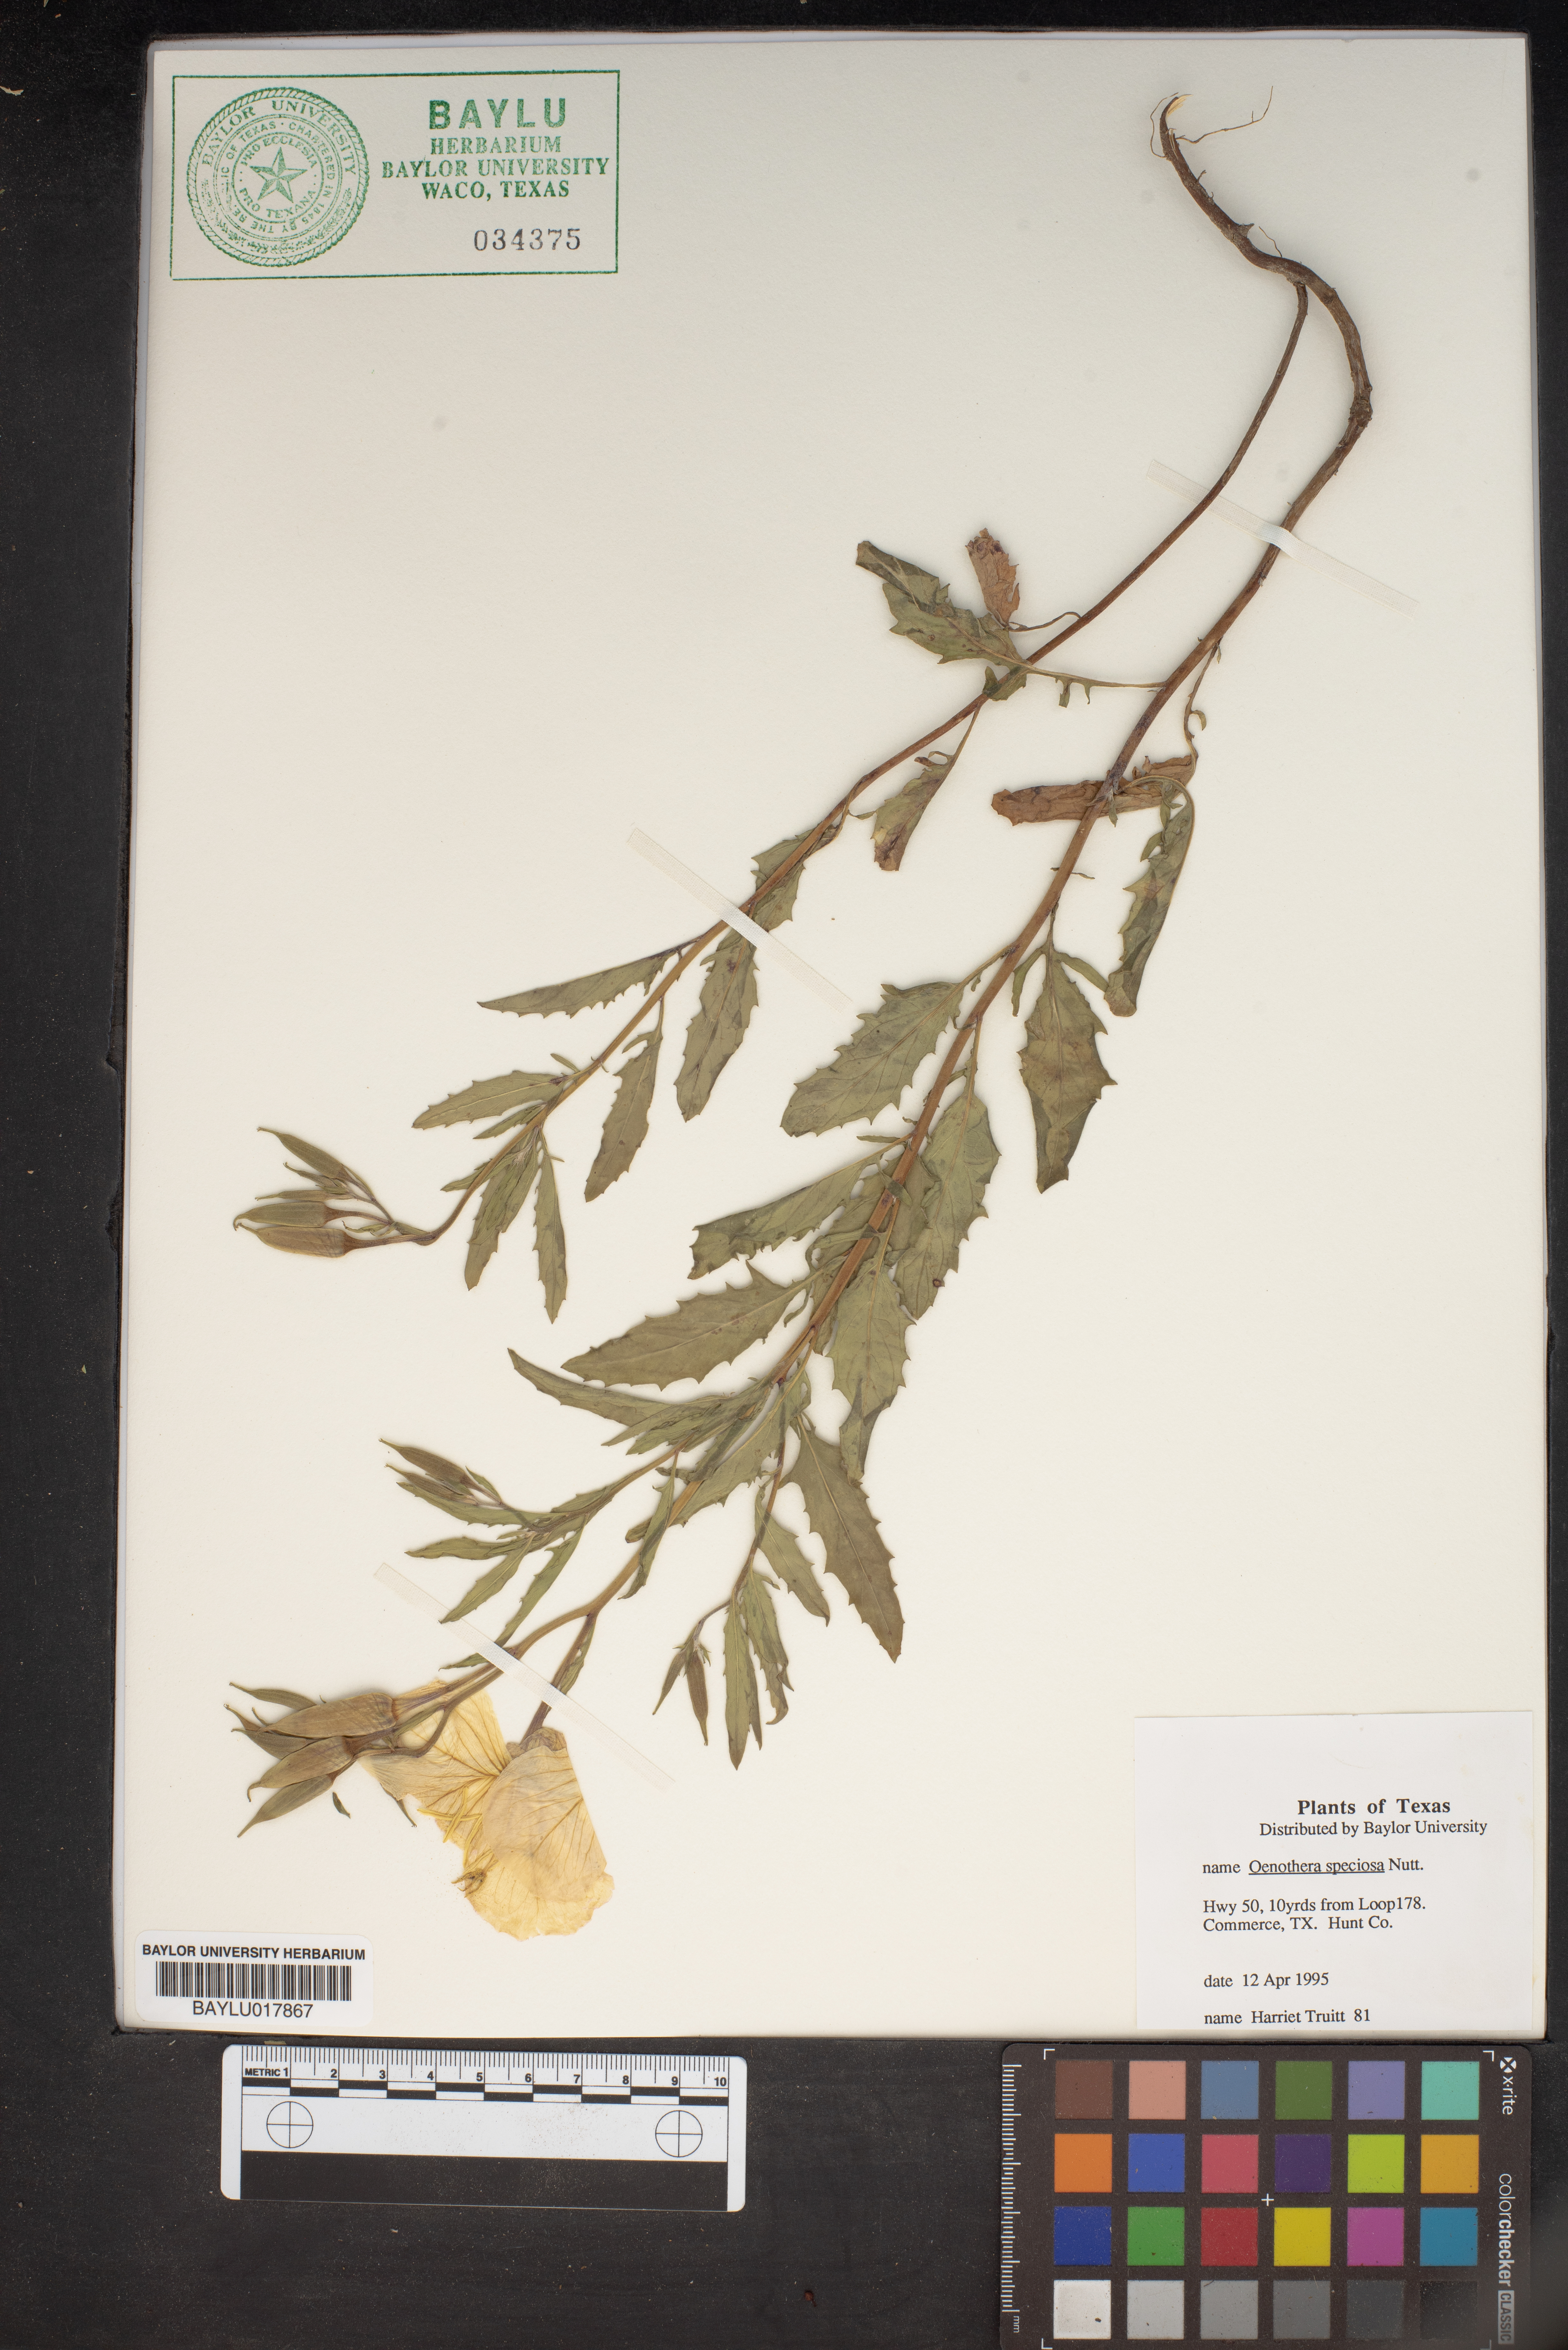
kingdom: Plantae
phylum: Tracheophyta
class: Magnoliopsida
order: Myrtales
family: Onagraceae
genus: Oenothera
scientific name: Oenothera speciosa
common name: White evening-primrose
